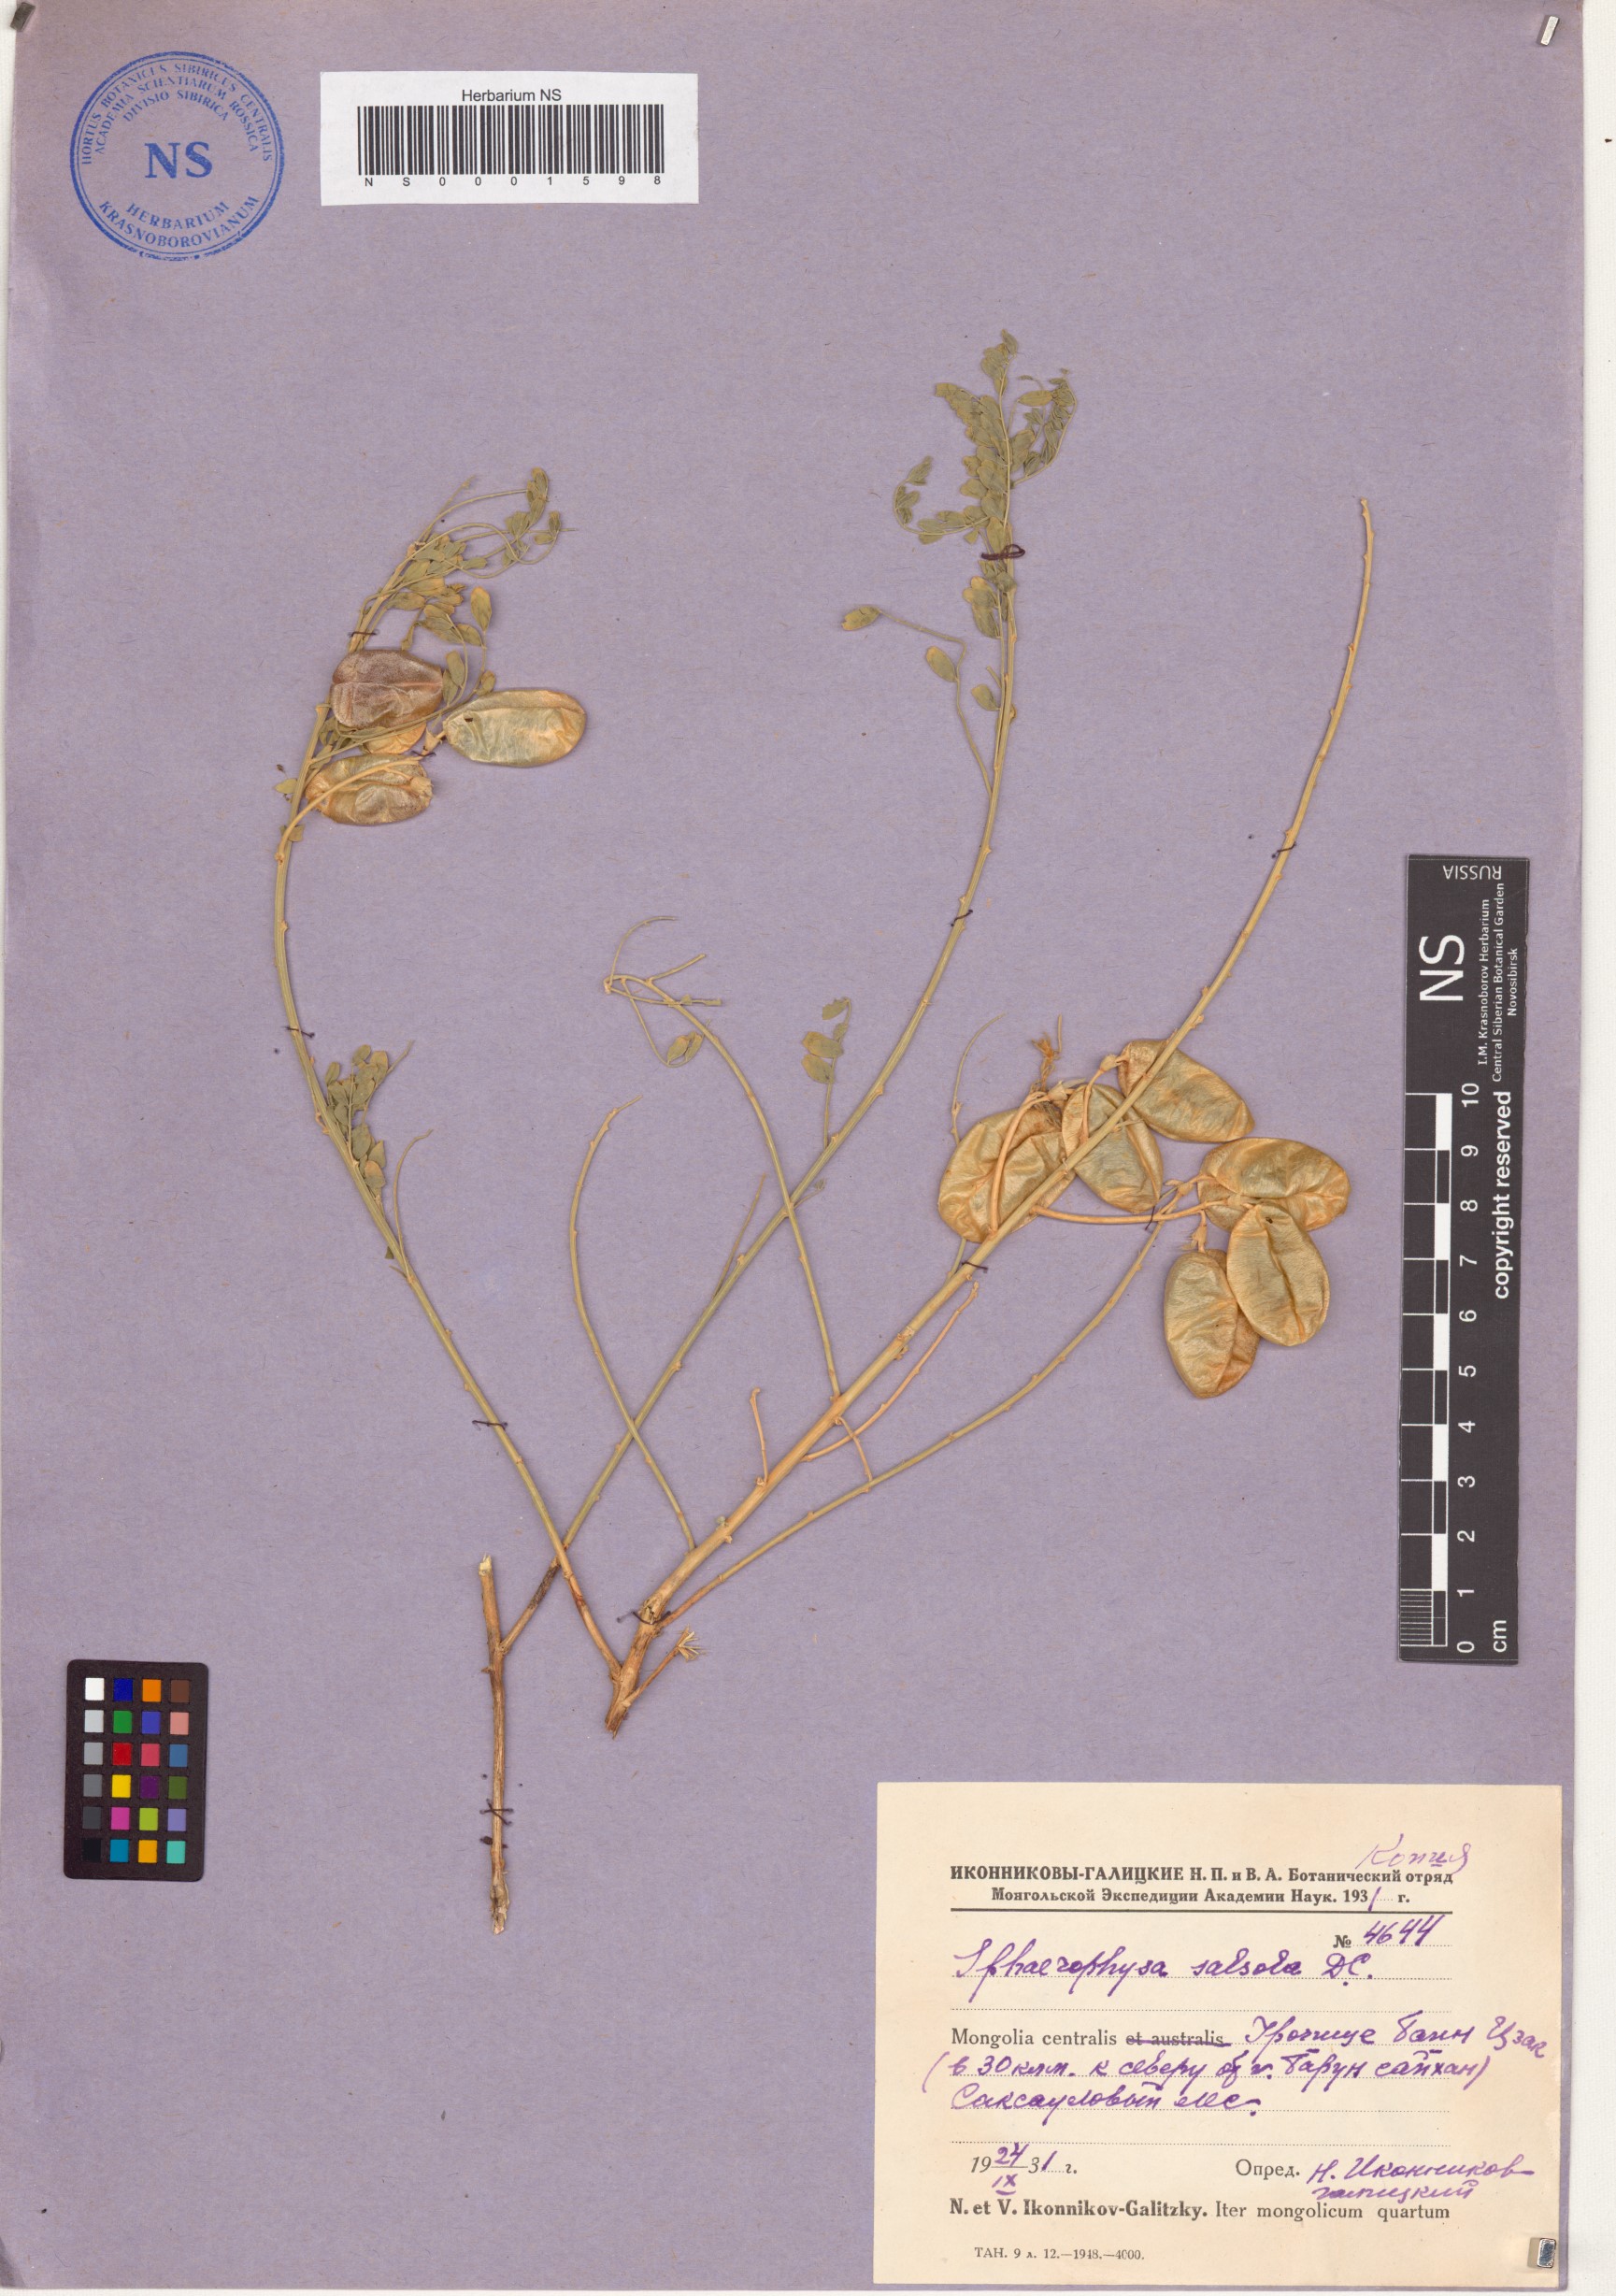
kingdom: Plantae
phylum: Tracheophyta
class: Magnoliopsida
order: Fabales
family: Fabaceae
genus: Sphaerophysa
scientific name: Sphaerophysa salsula
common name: Alkali swainsonpea
